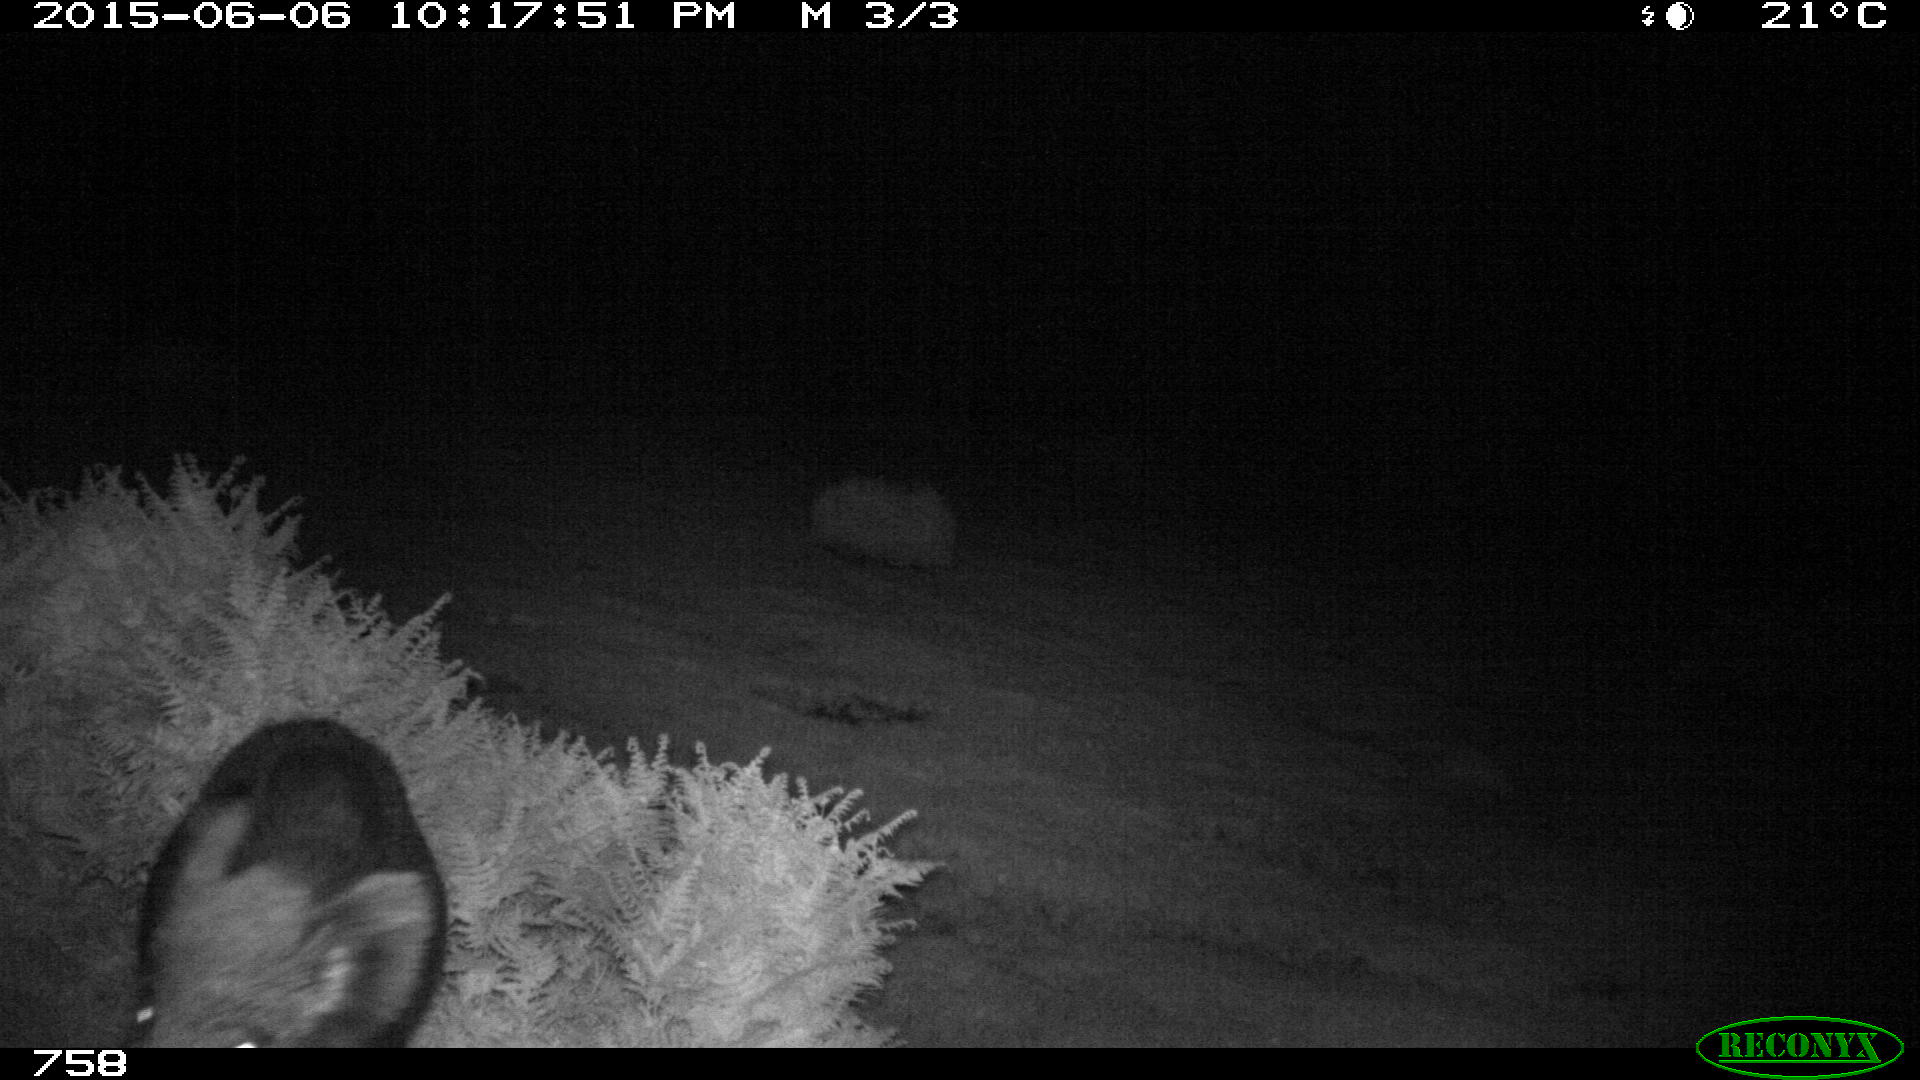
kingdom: Animalia
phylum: Chordata
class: Mammalia
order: Artiodactyla
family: Suidae
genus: Sus
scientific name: Sus scrofa
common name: Wild boar
